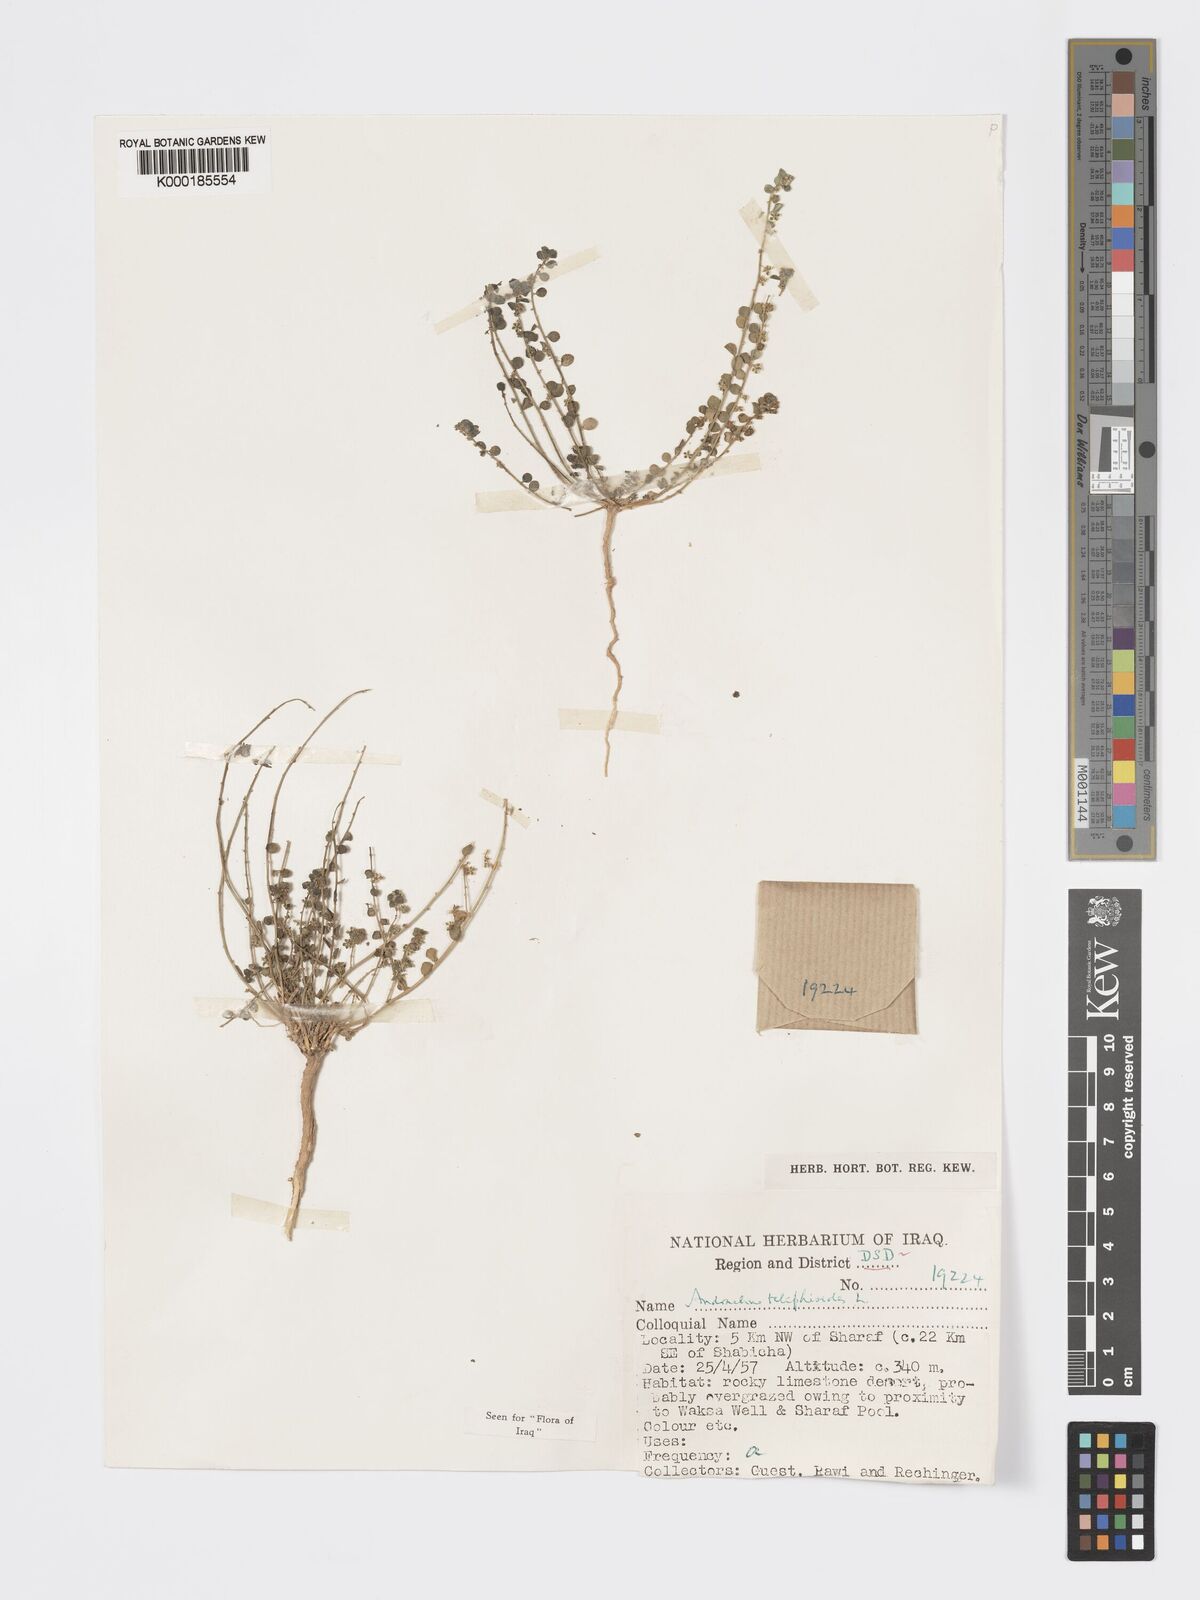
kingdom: Plantae
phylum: Tracheophyta
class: Magnoliopsida
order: Malpighiales
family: Phyllanthaceae
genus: Andrachne
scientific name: Andrachne telephioides
